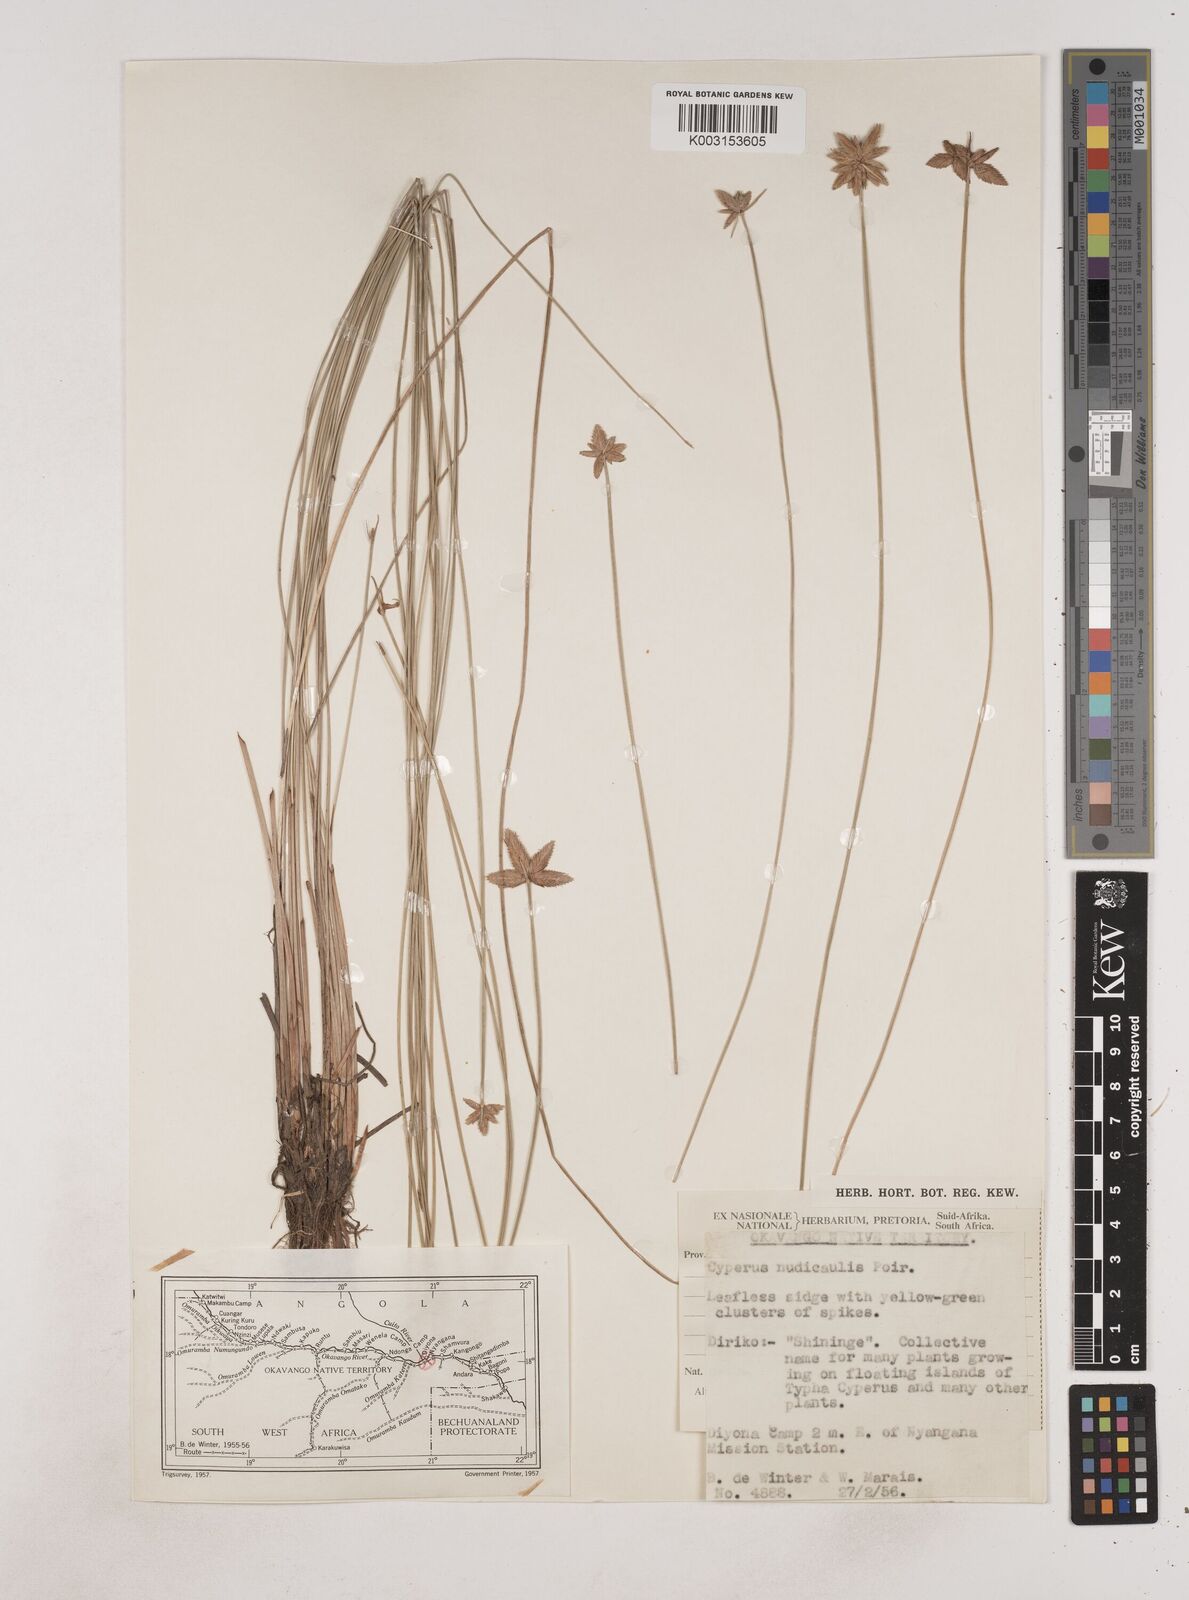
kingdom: Plantae
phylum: Tracheophyta
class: Liliopsida
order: Poales
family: Cyperaceae
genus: Cyperus
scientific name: Cyperus pectinatus
